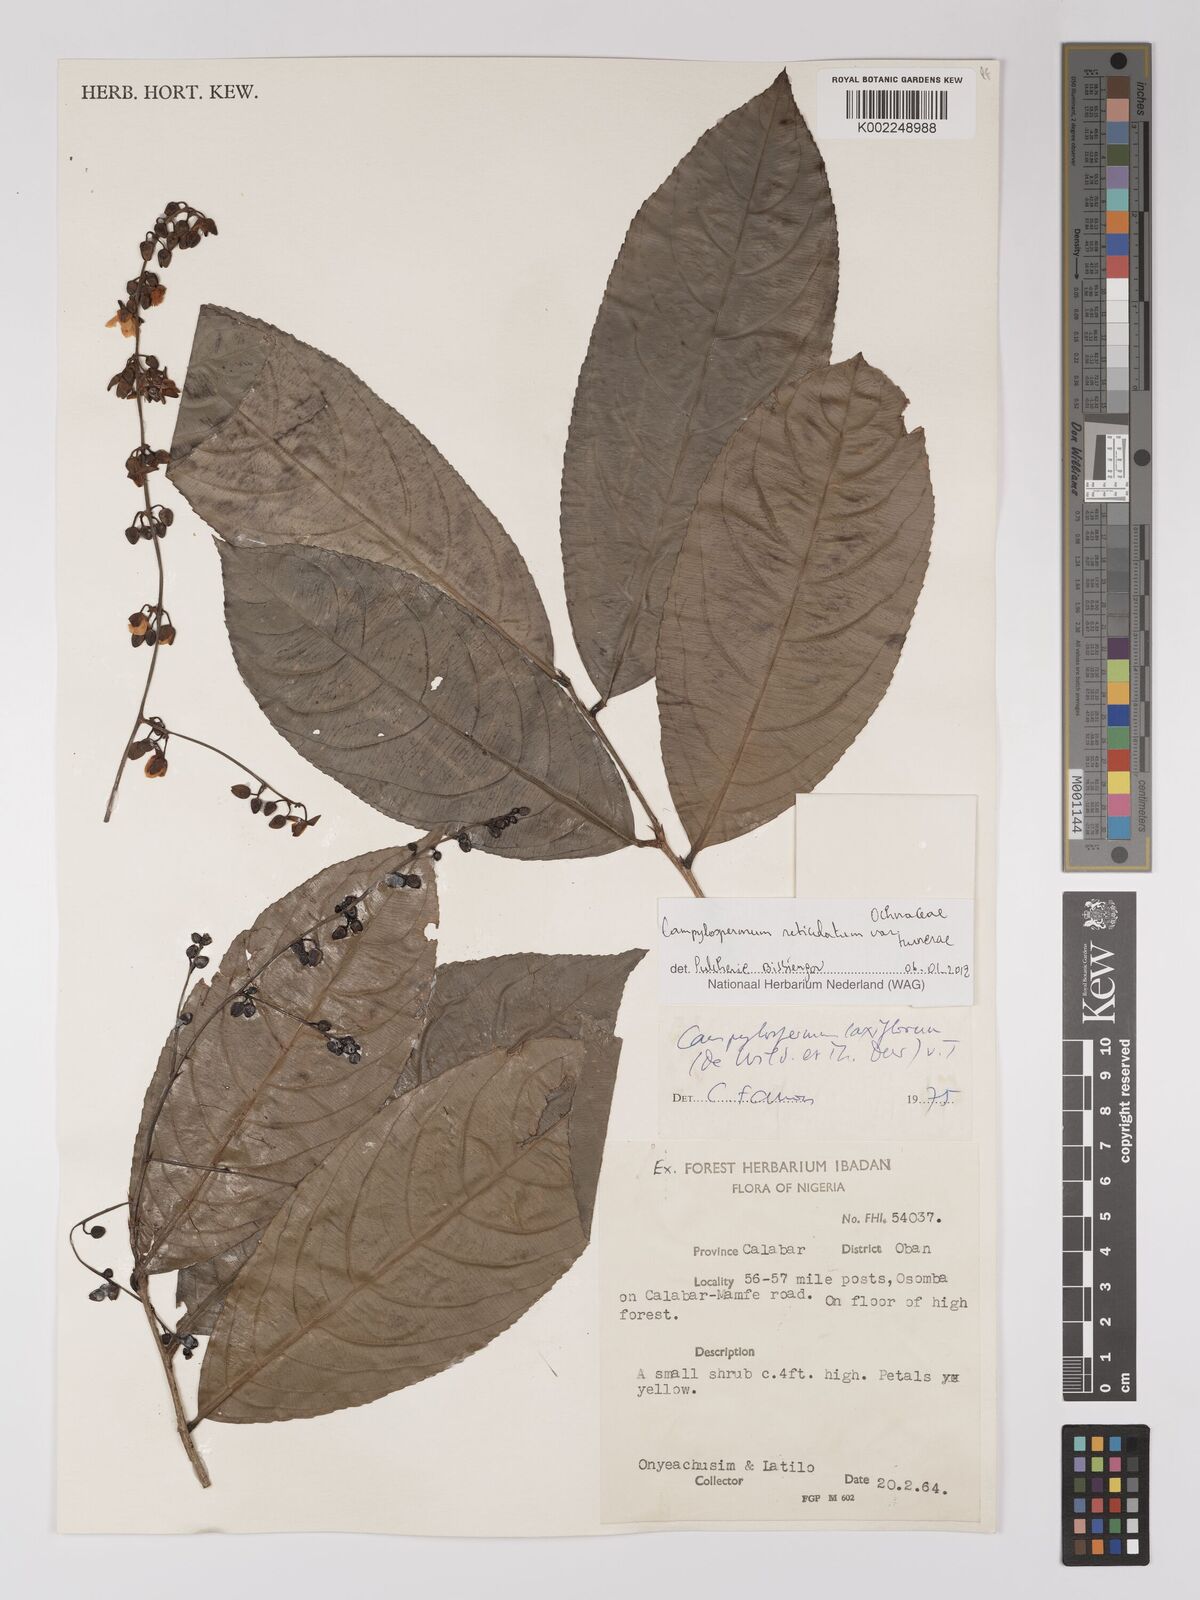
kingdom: Plantae
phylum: Tracheophyta
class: Magnoliopsida
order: Malpighiales
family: Ochnaceae
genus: Campylospermum
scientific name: Campylospermum reticulatum
